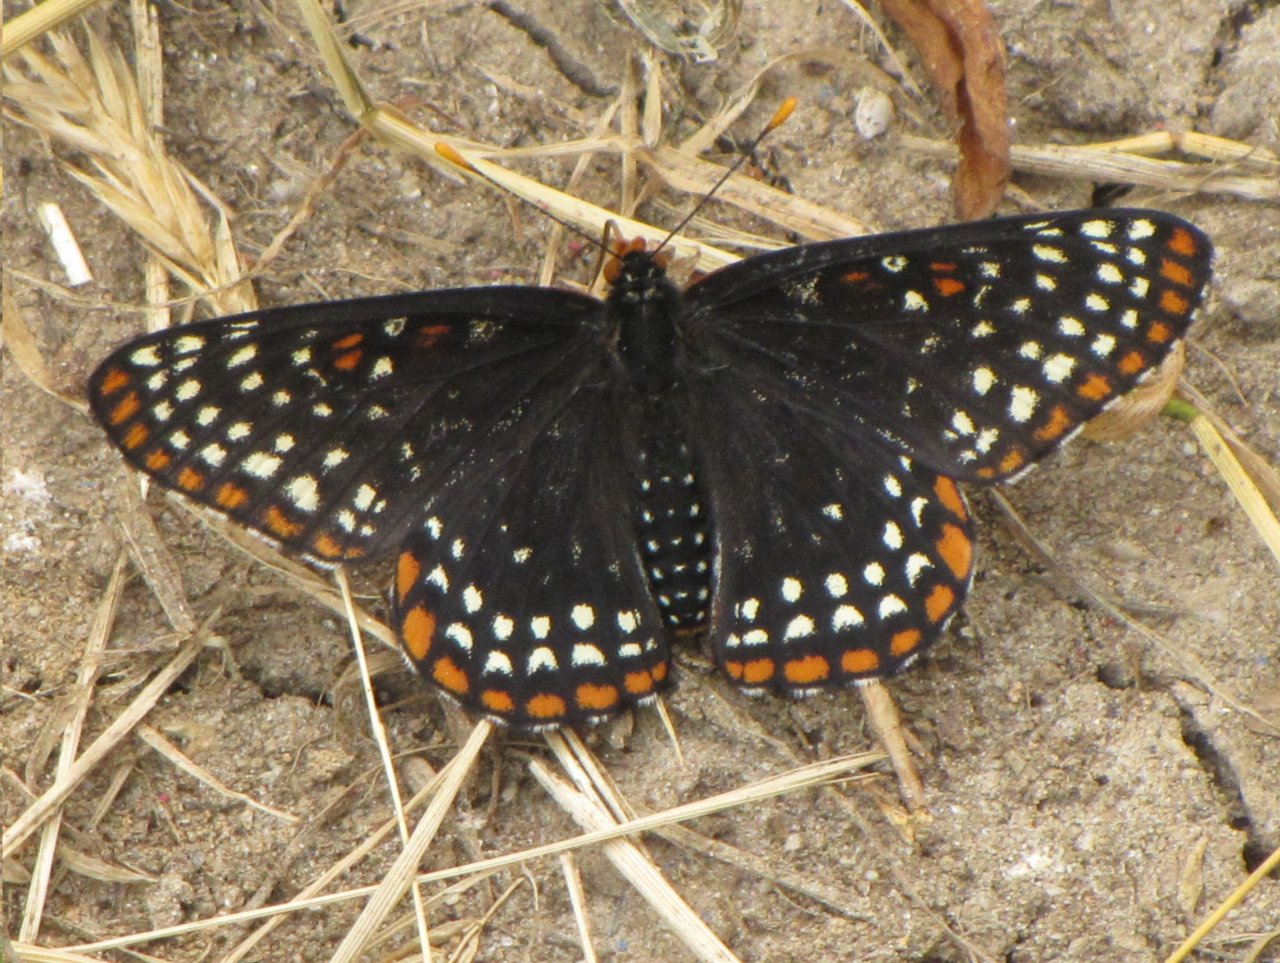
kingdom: Animalia
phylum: Arthropoda
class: Insecta
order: Lepidoptera
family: Nymphalidae
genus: Euphydryas
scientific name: Euphydryas phaeton
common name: Baltimore Checkerspot
